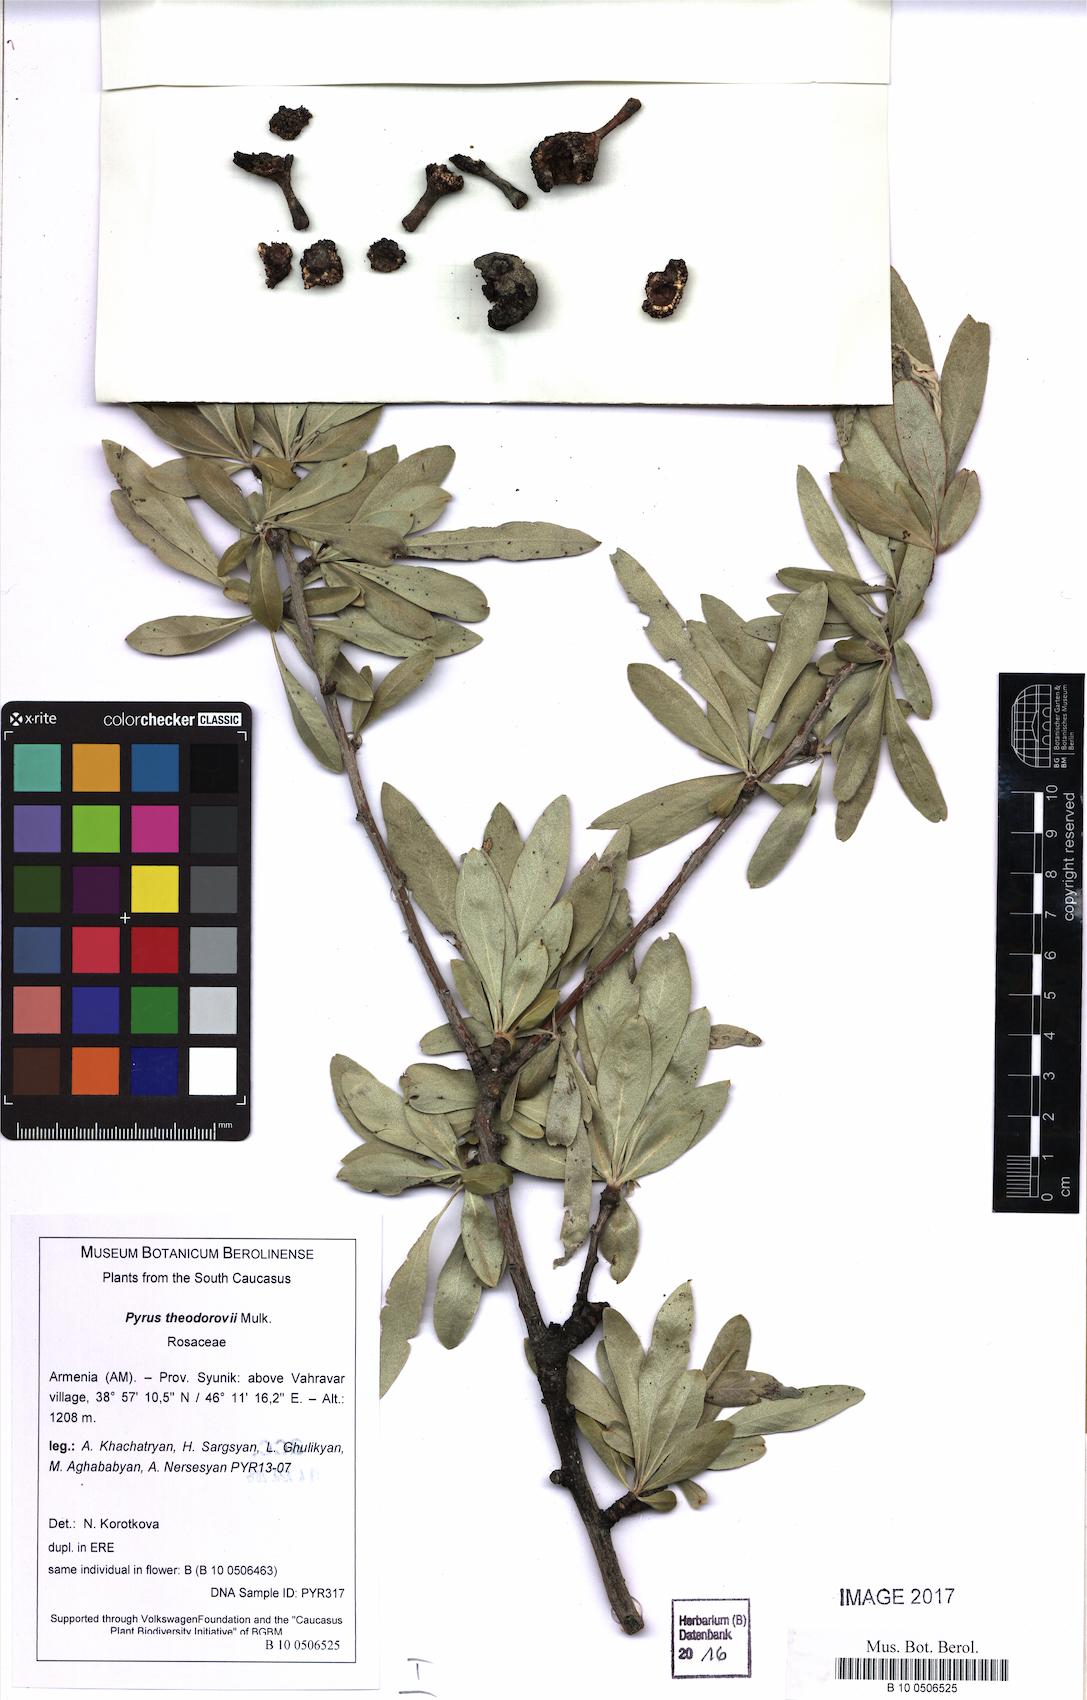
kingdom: Plantae
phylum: Tracheophyta
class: Magnoliopsida
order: Rosales
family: Rosaceae
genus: Pyrus
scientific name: Pyrus salicifolia
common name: Willow-leaved pear
